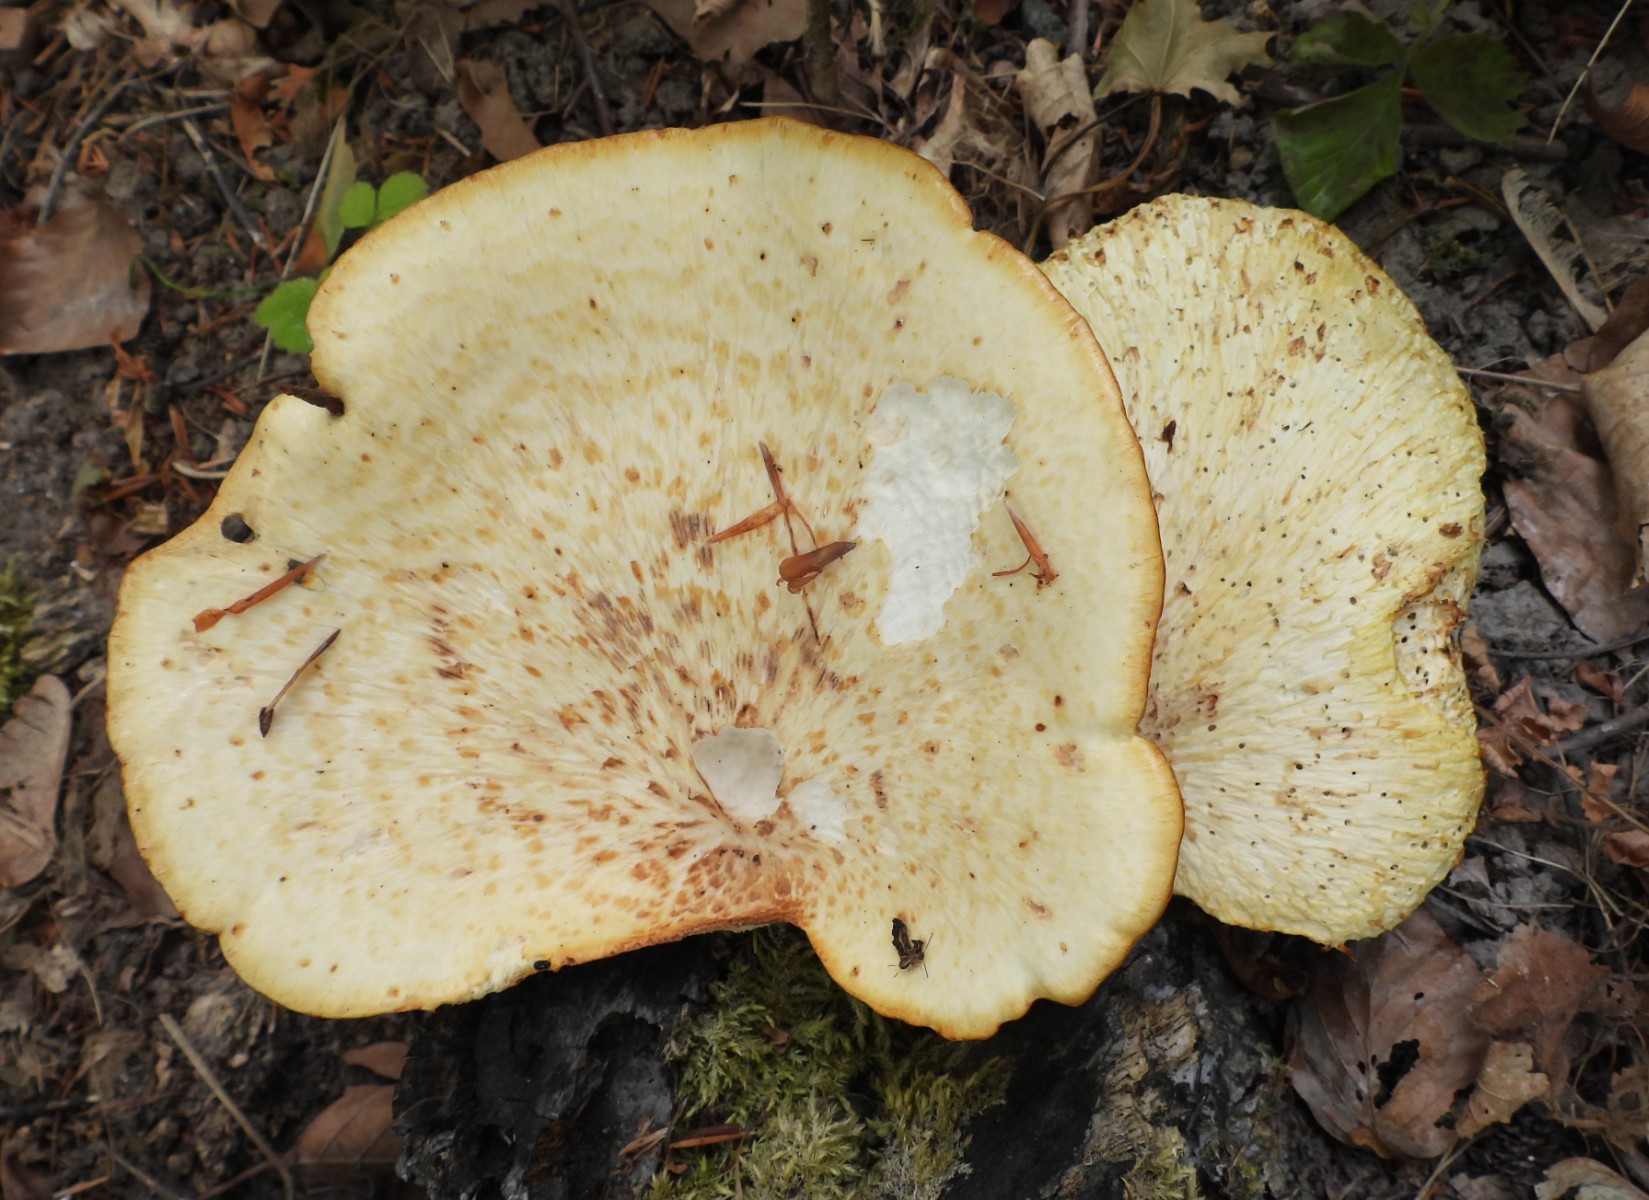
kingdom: Fungi
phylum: Basidiomycota
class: Agaricomycetes
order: Polyporales
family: Polyporaceae
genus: Cerioporus
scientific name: Cerioporus squamosus
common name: skællet stilkporesvamp
